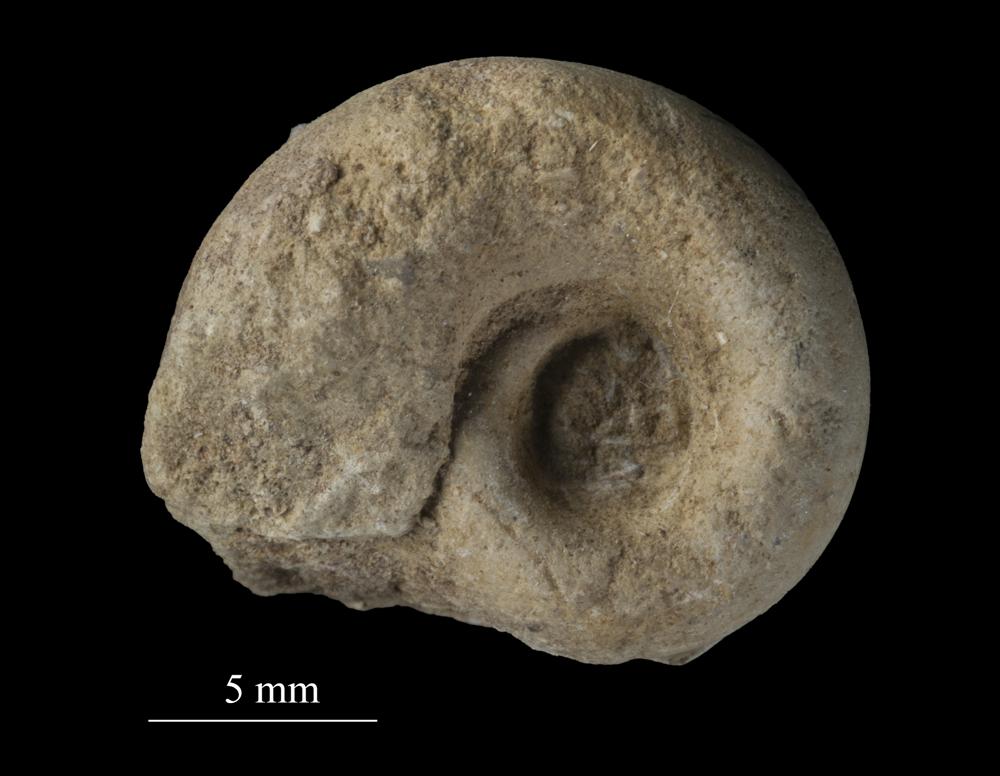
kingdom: Animalia
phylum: Mollusca
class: Gastropoda
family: Euomphalidae
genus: Euomphalus
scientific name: Euomphalus
